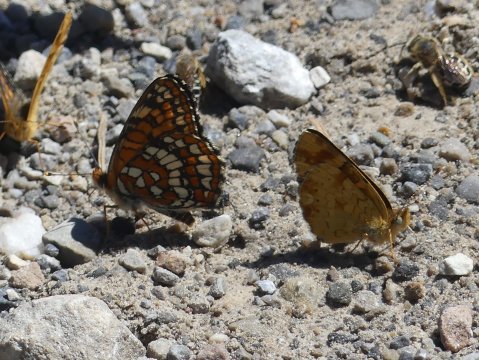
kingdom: Animalia
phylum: Arthropoda
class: Insecta
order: Lepidoptera
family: Nymphalidae
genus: Chlosyne
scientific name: Chlosyne palla
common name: Northern Checkerspot
